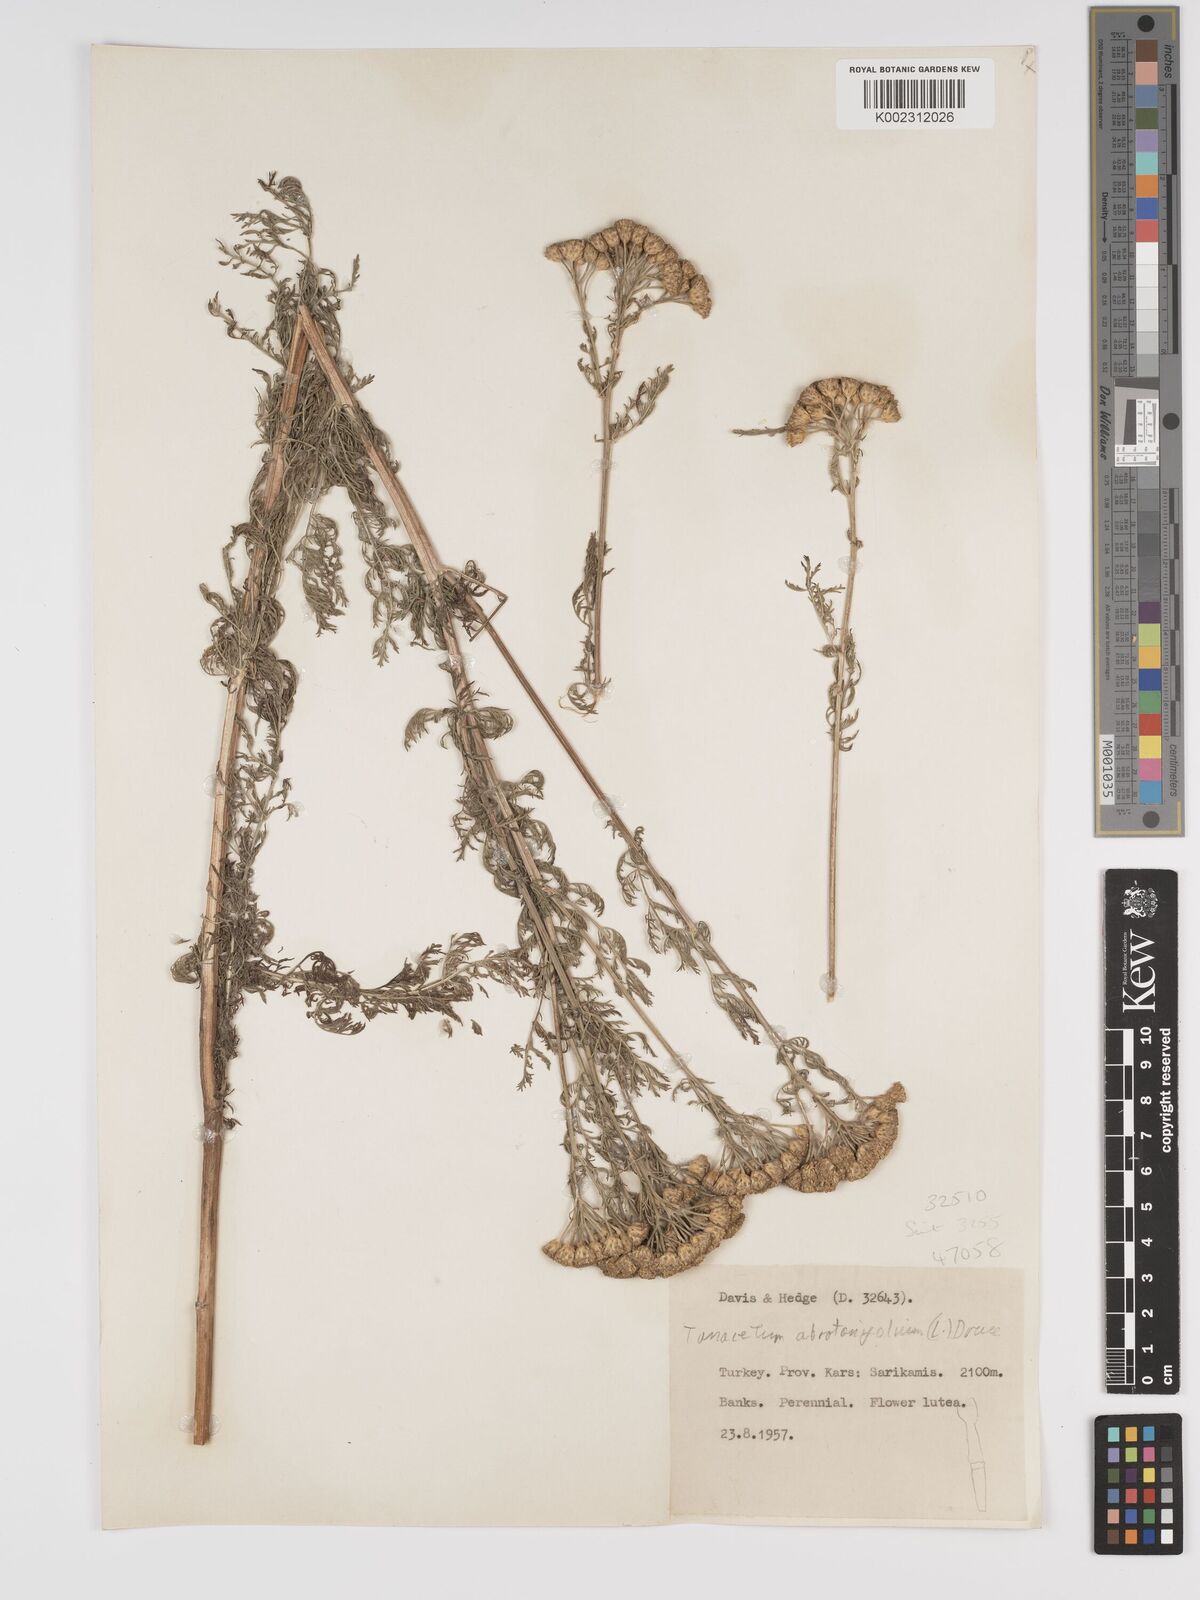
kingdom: Plantae
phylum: Tracheophyta
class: Magnoliopsida
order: Asterales
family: Asteraceae
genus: Tanacetum
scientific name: Tanacetum abrotanifolium
